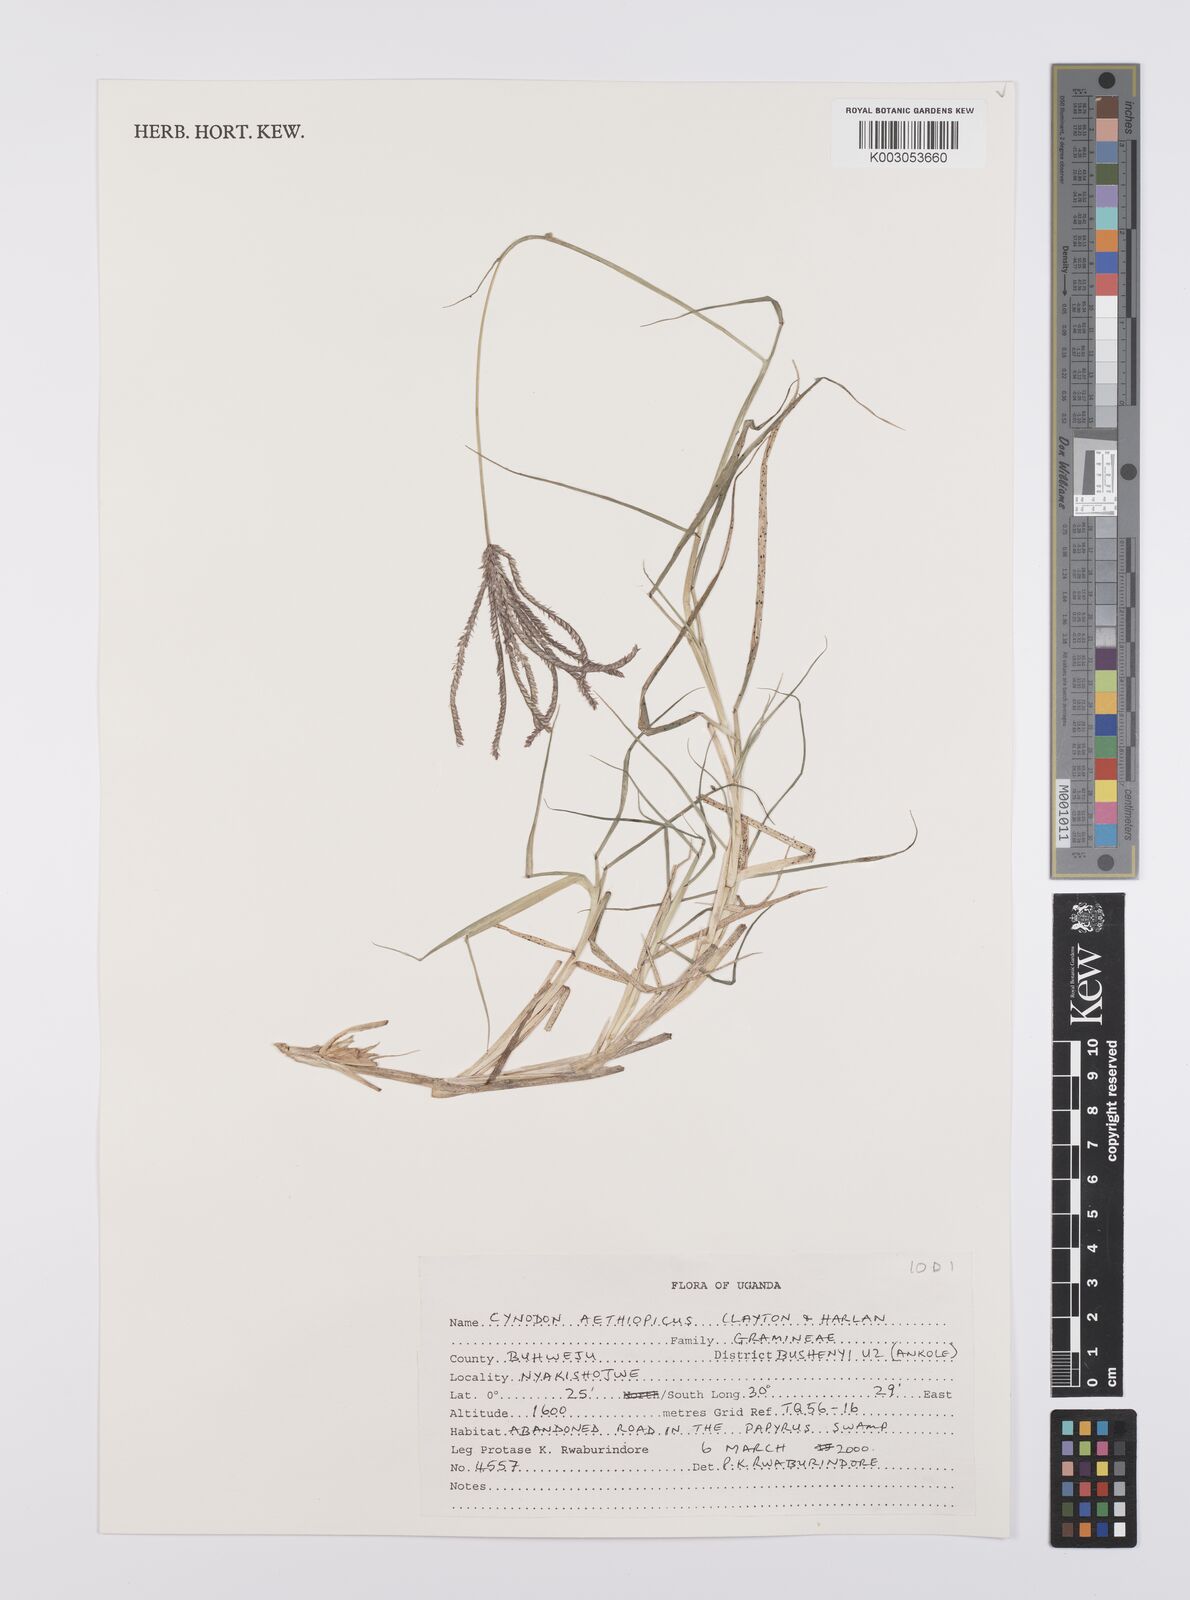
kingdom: Plantae
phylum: Tracheophyta
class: Liliopsida
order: Poales
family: Poaceae
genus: Cynodon
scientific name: Cynodon aethiopicus
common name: Ethiopian dogstooth grass
